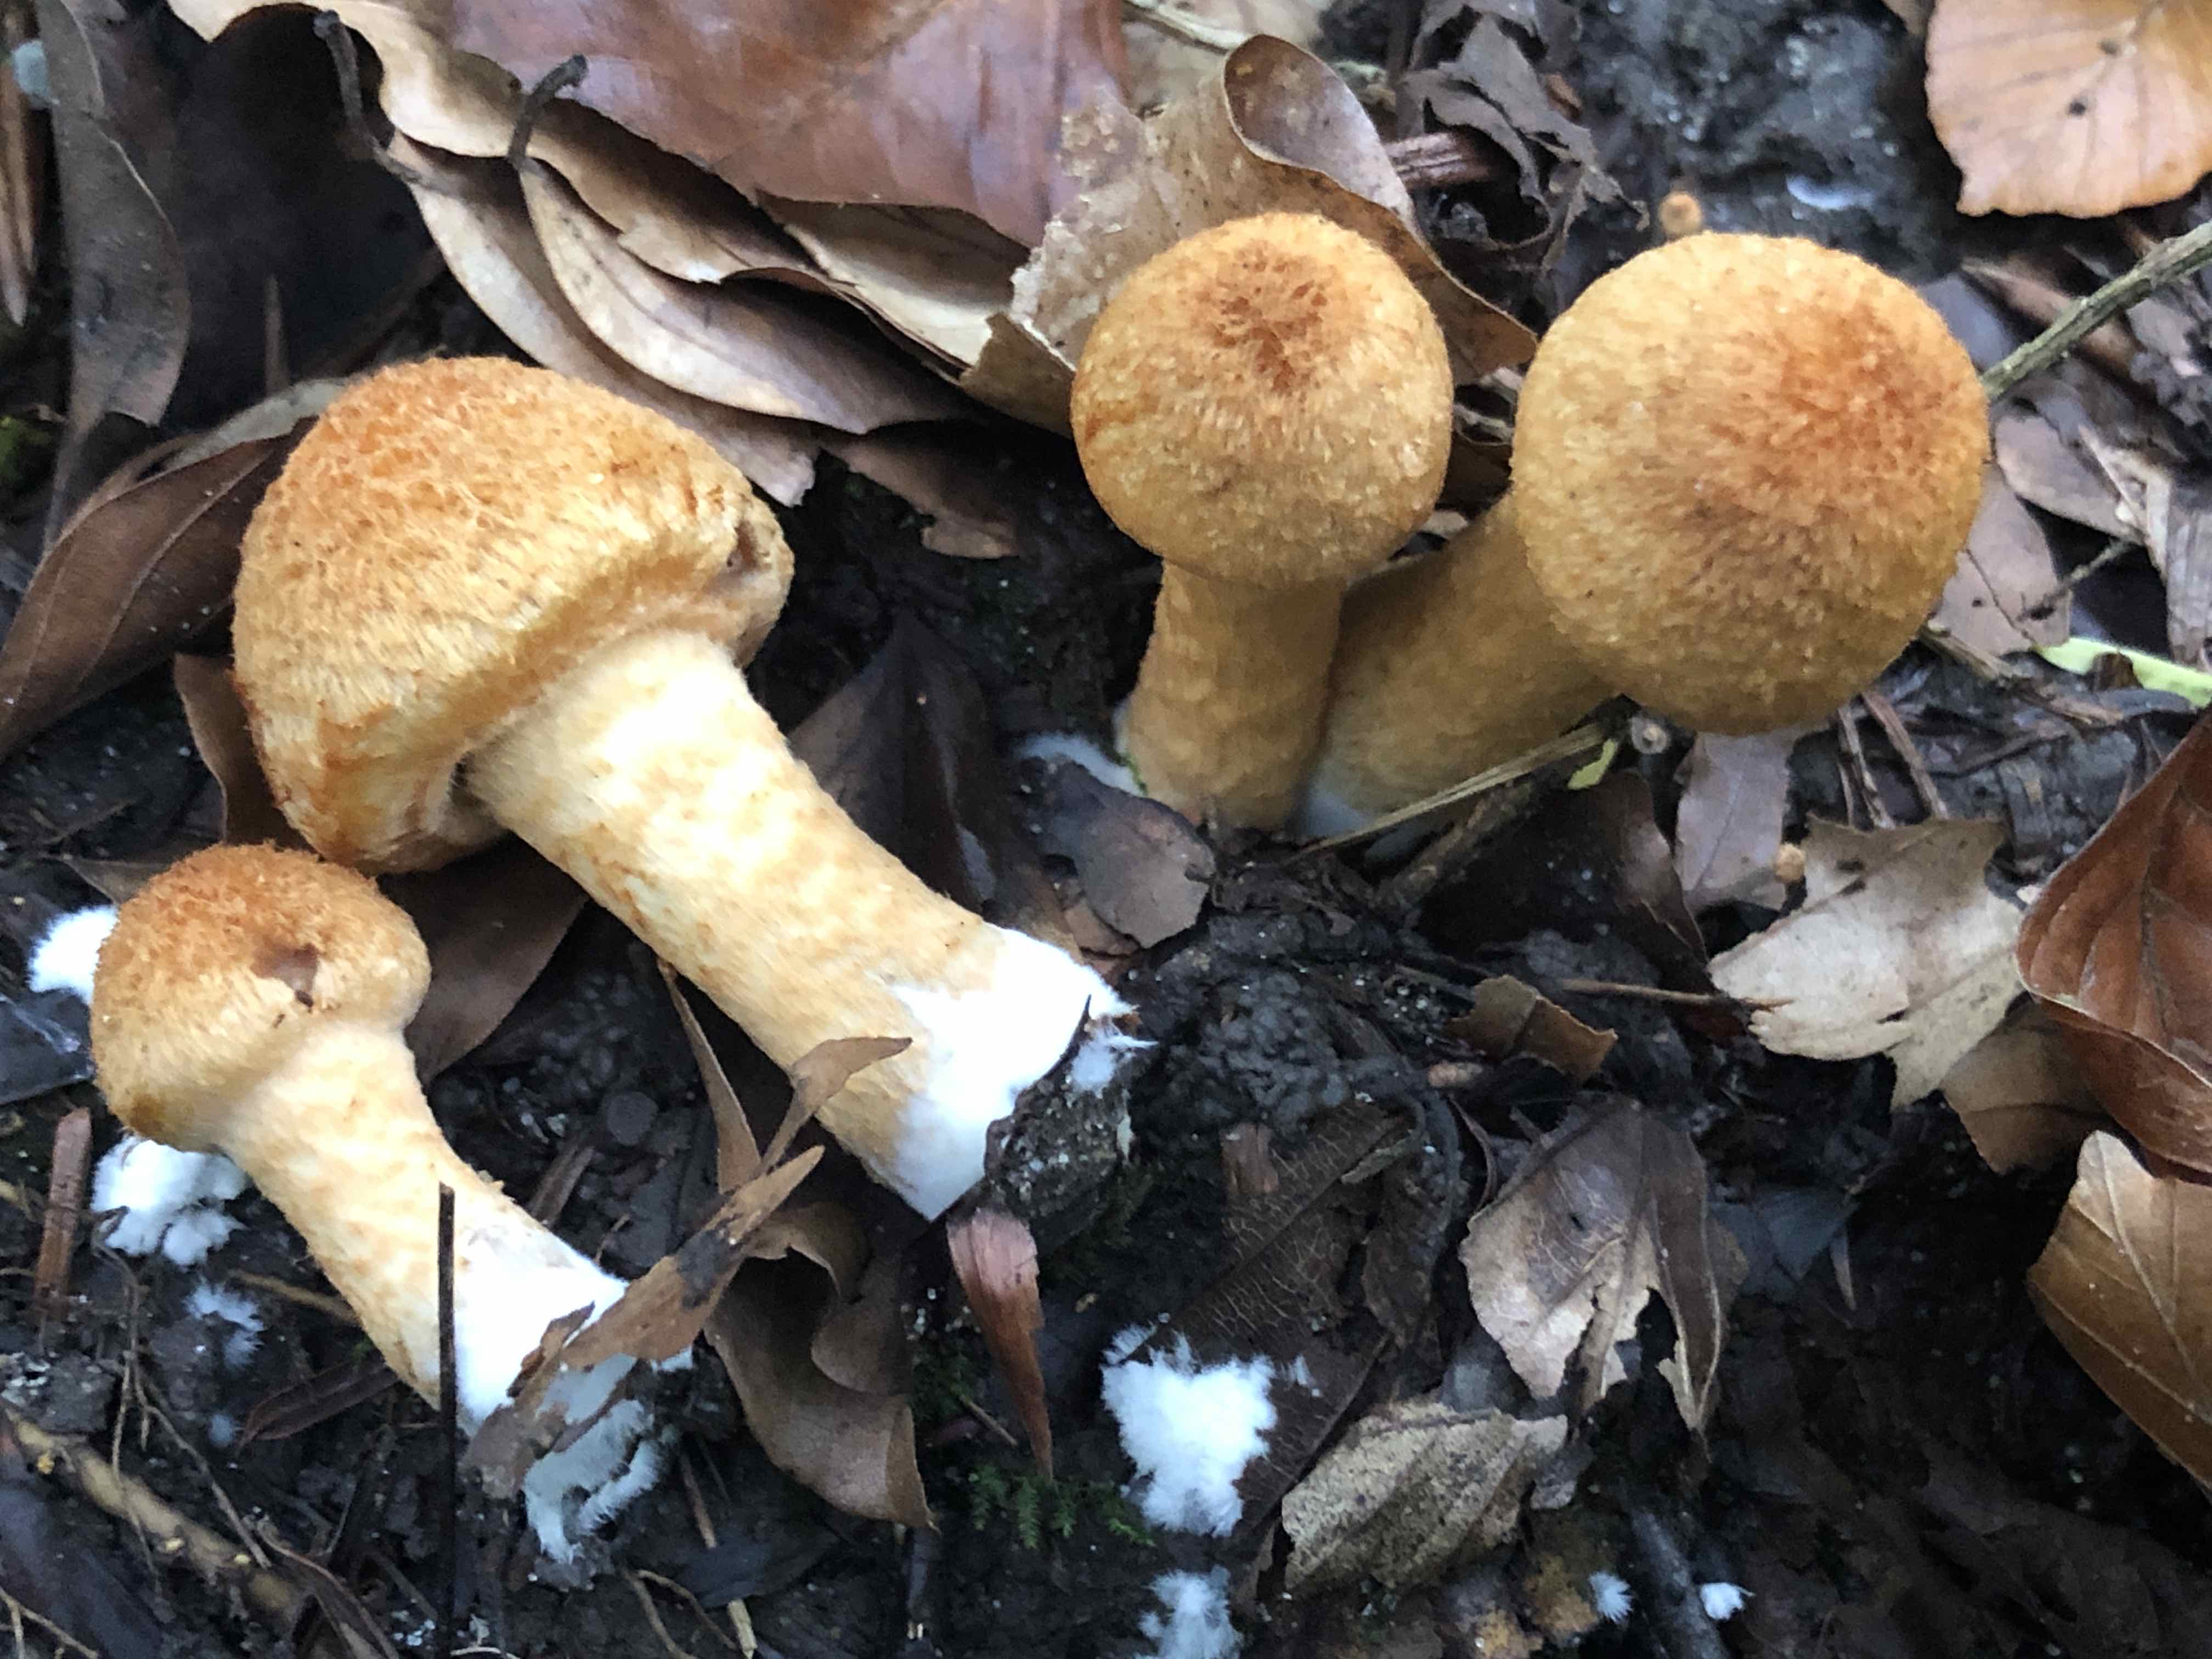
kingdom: Fungi
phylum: Basidiomycota
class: Agaricomycetes
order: Agaricales
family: Psathyrellaceae
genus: Lacrymaria
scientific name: Lacrymaria pyrotricha
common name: ildhåret mørkhat
